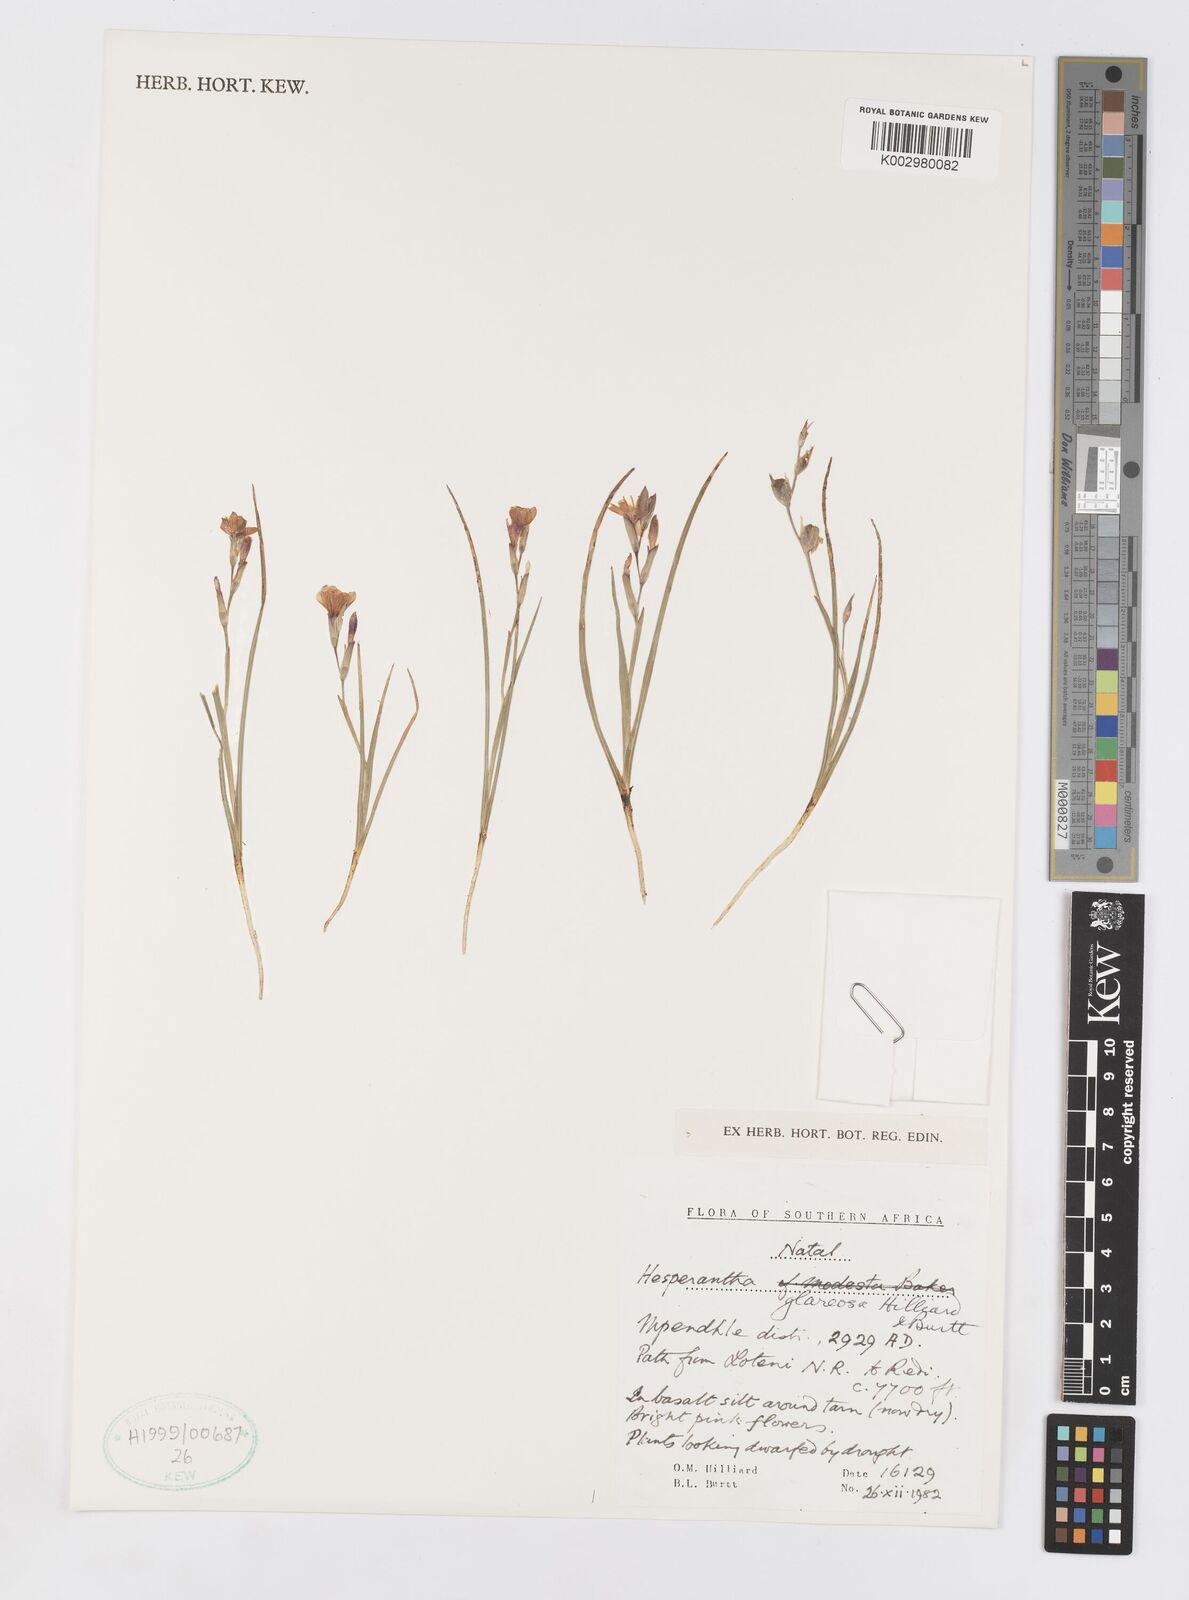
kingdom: Plantae
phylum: Tracheophyta
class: Liliopsida
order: Asparagales
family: Iridaceae
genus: Hesperantha
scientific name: Hesperantha glareosa
